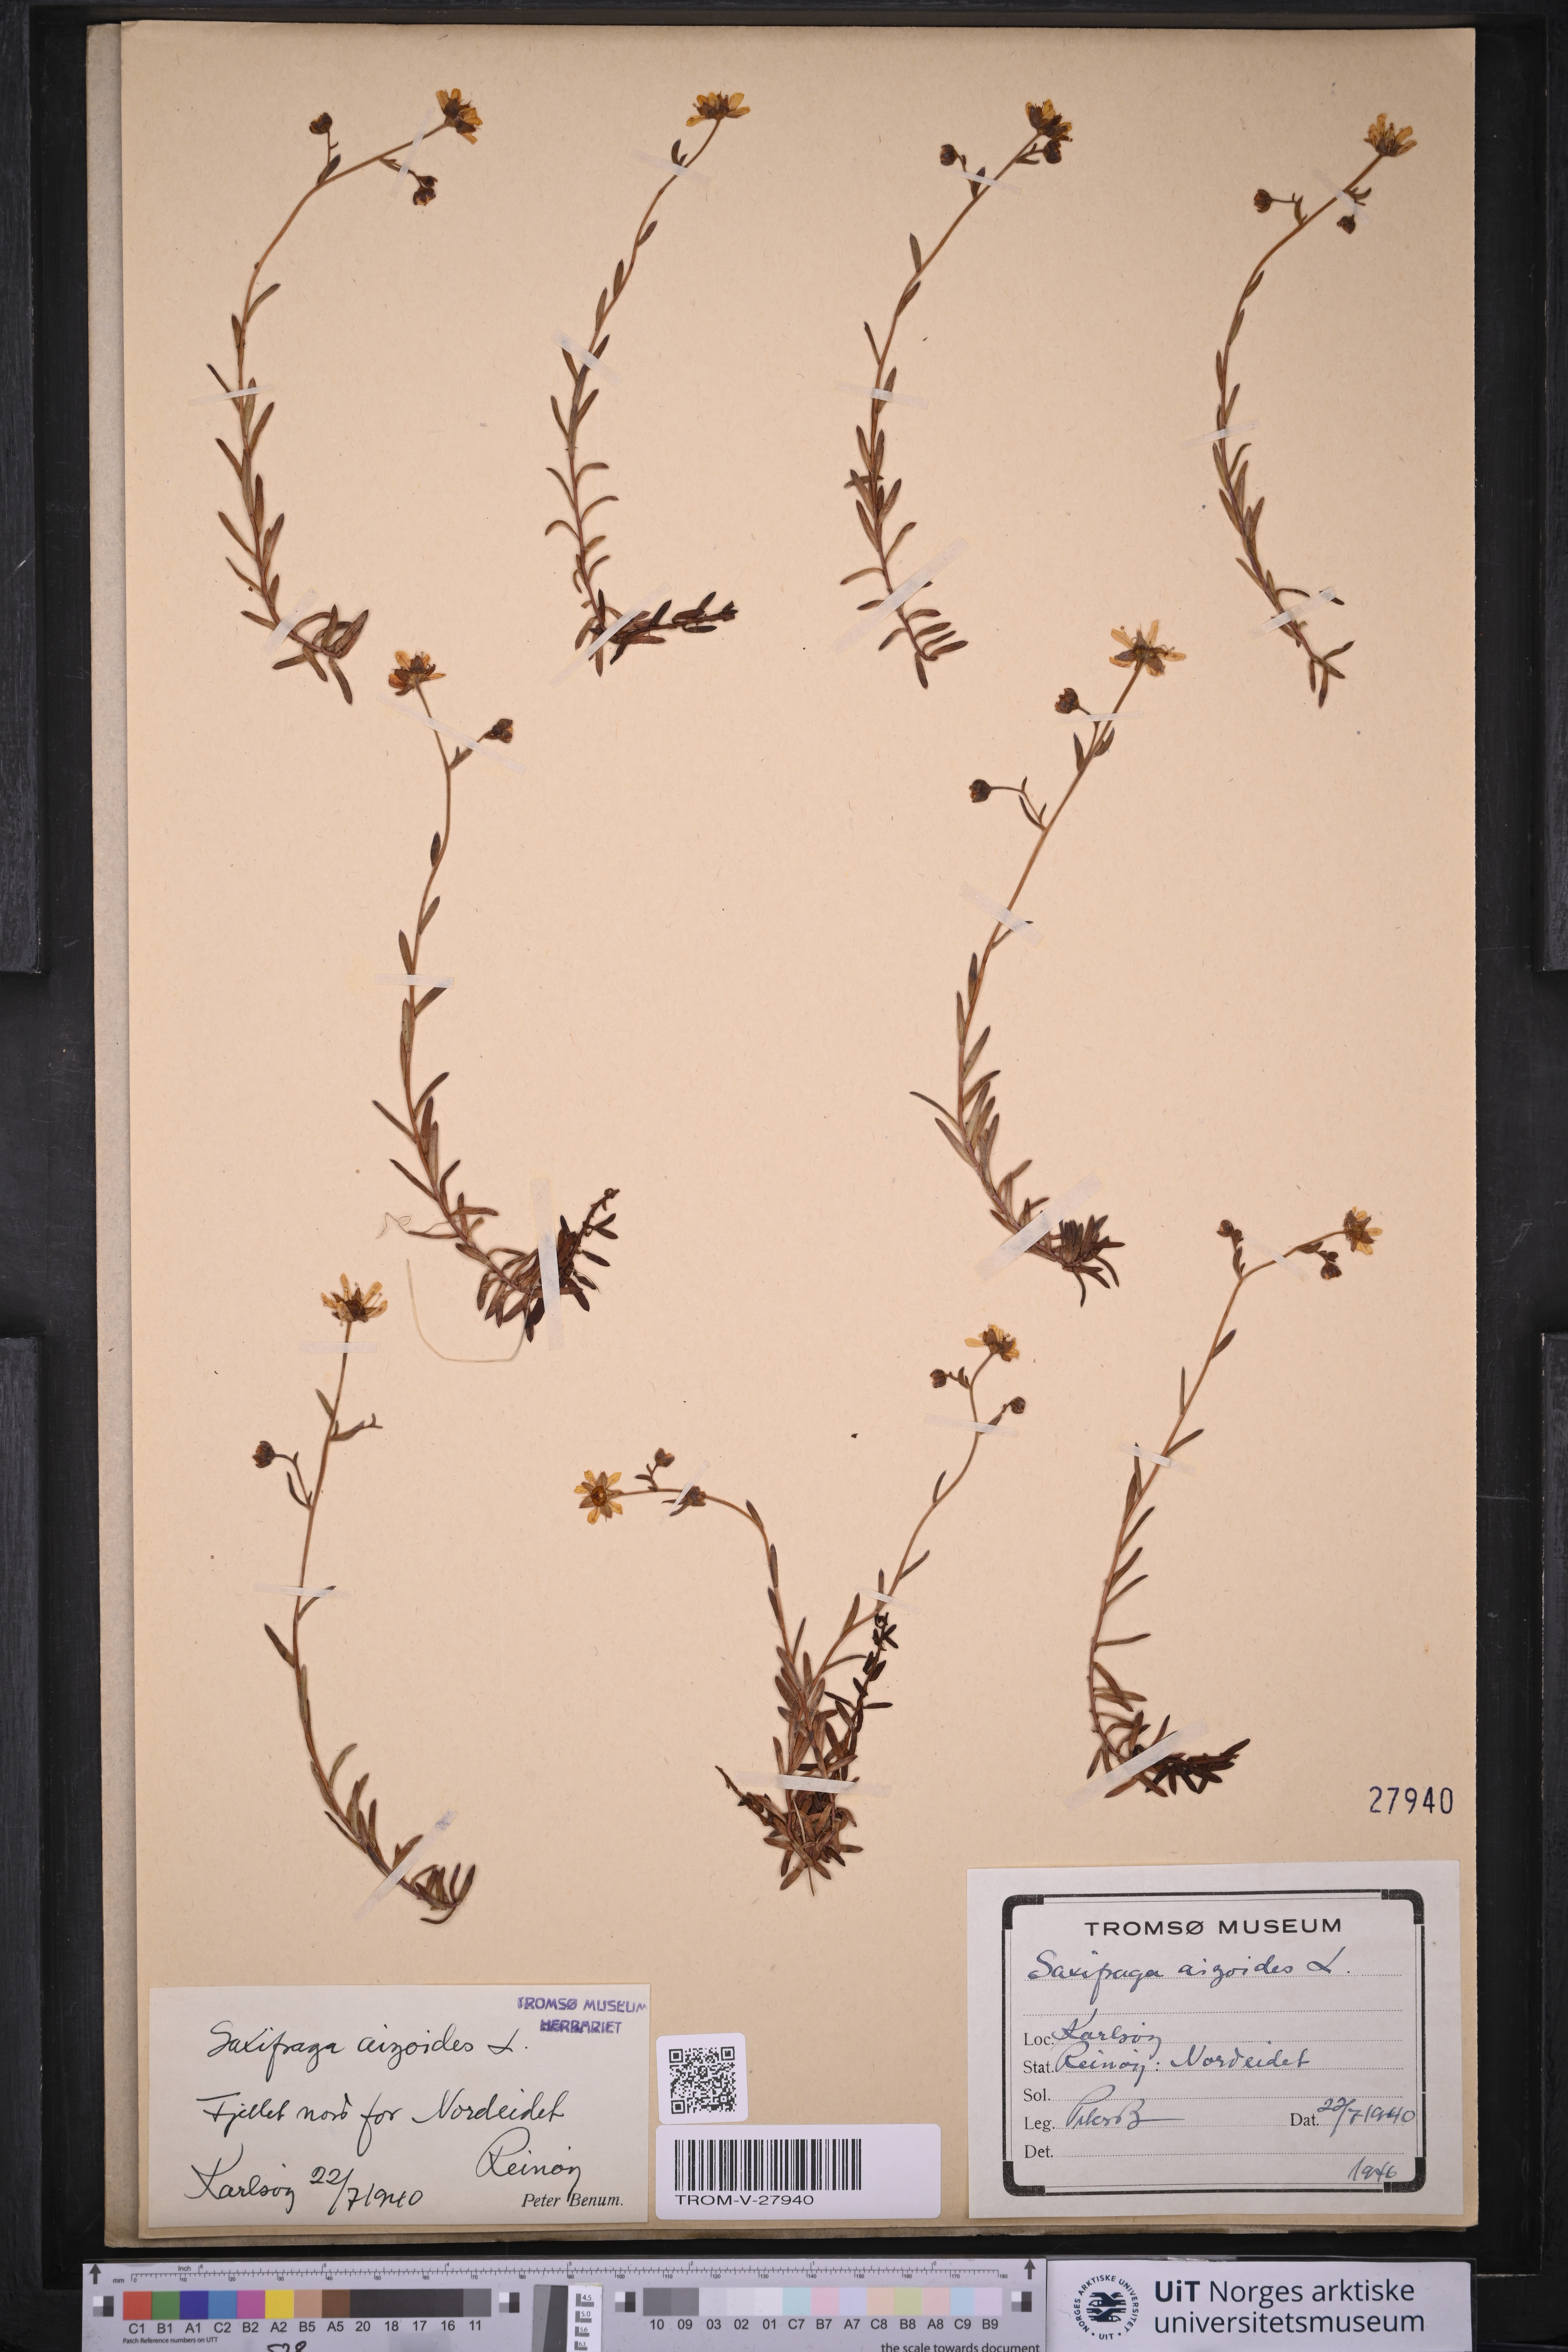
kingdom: Plantae
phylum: Tracheophyta
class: Magnoliopsida
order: Saxifragales
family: Saxifragaceae
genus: Saxifraga
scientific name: Saxifraga aizoides
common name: Yellow mountain saxifrage
